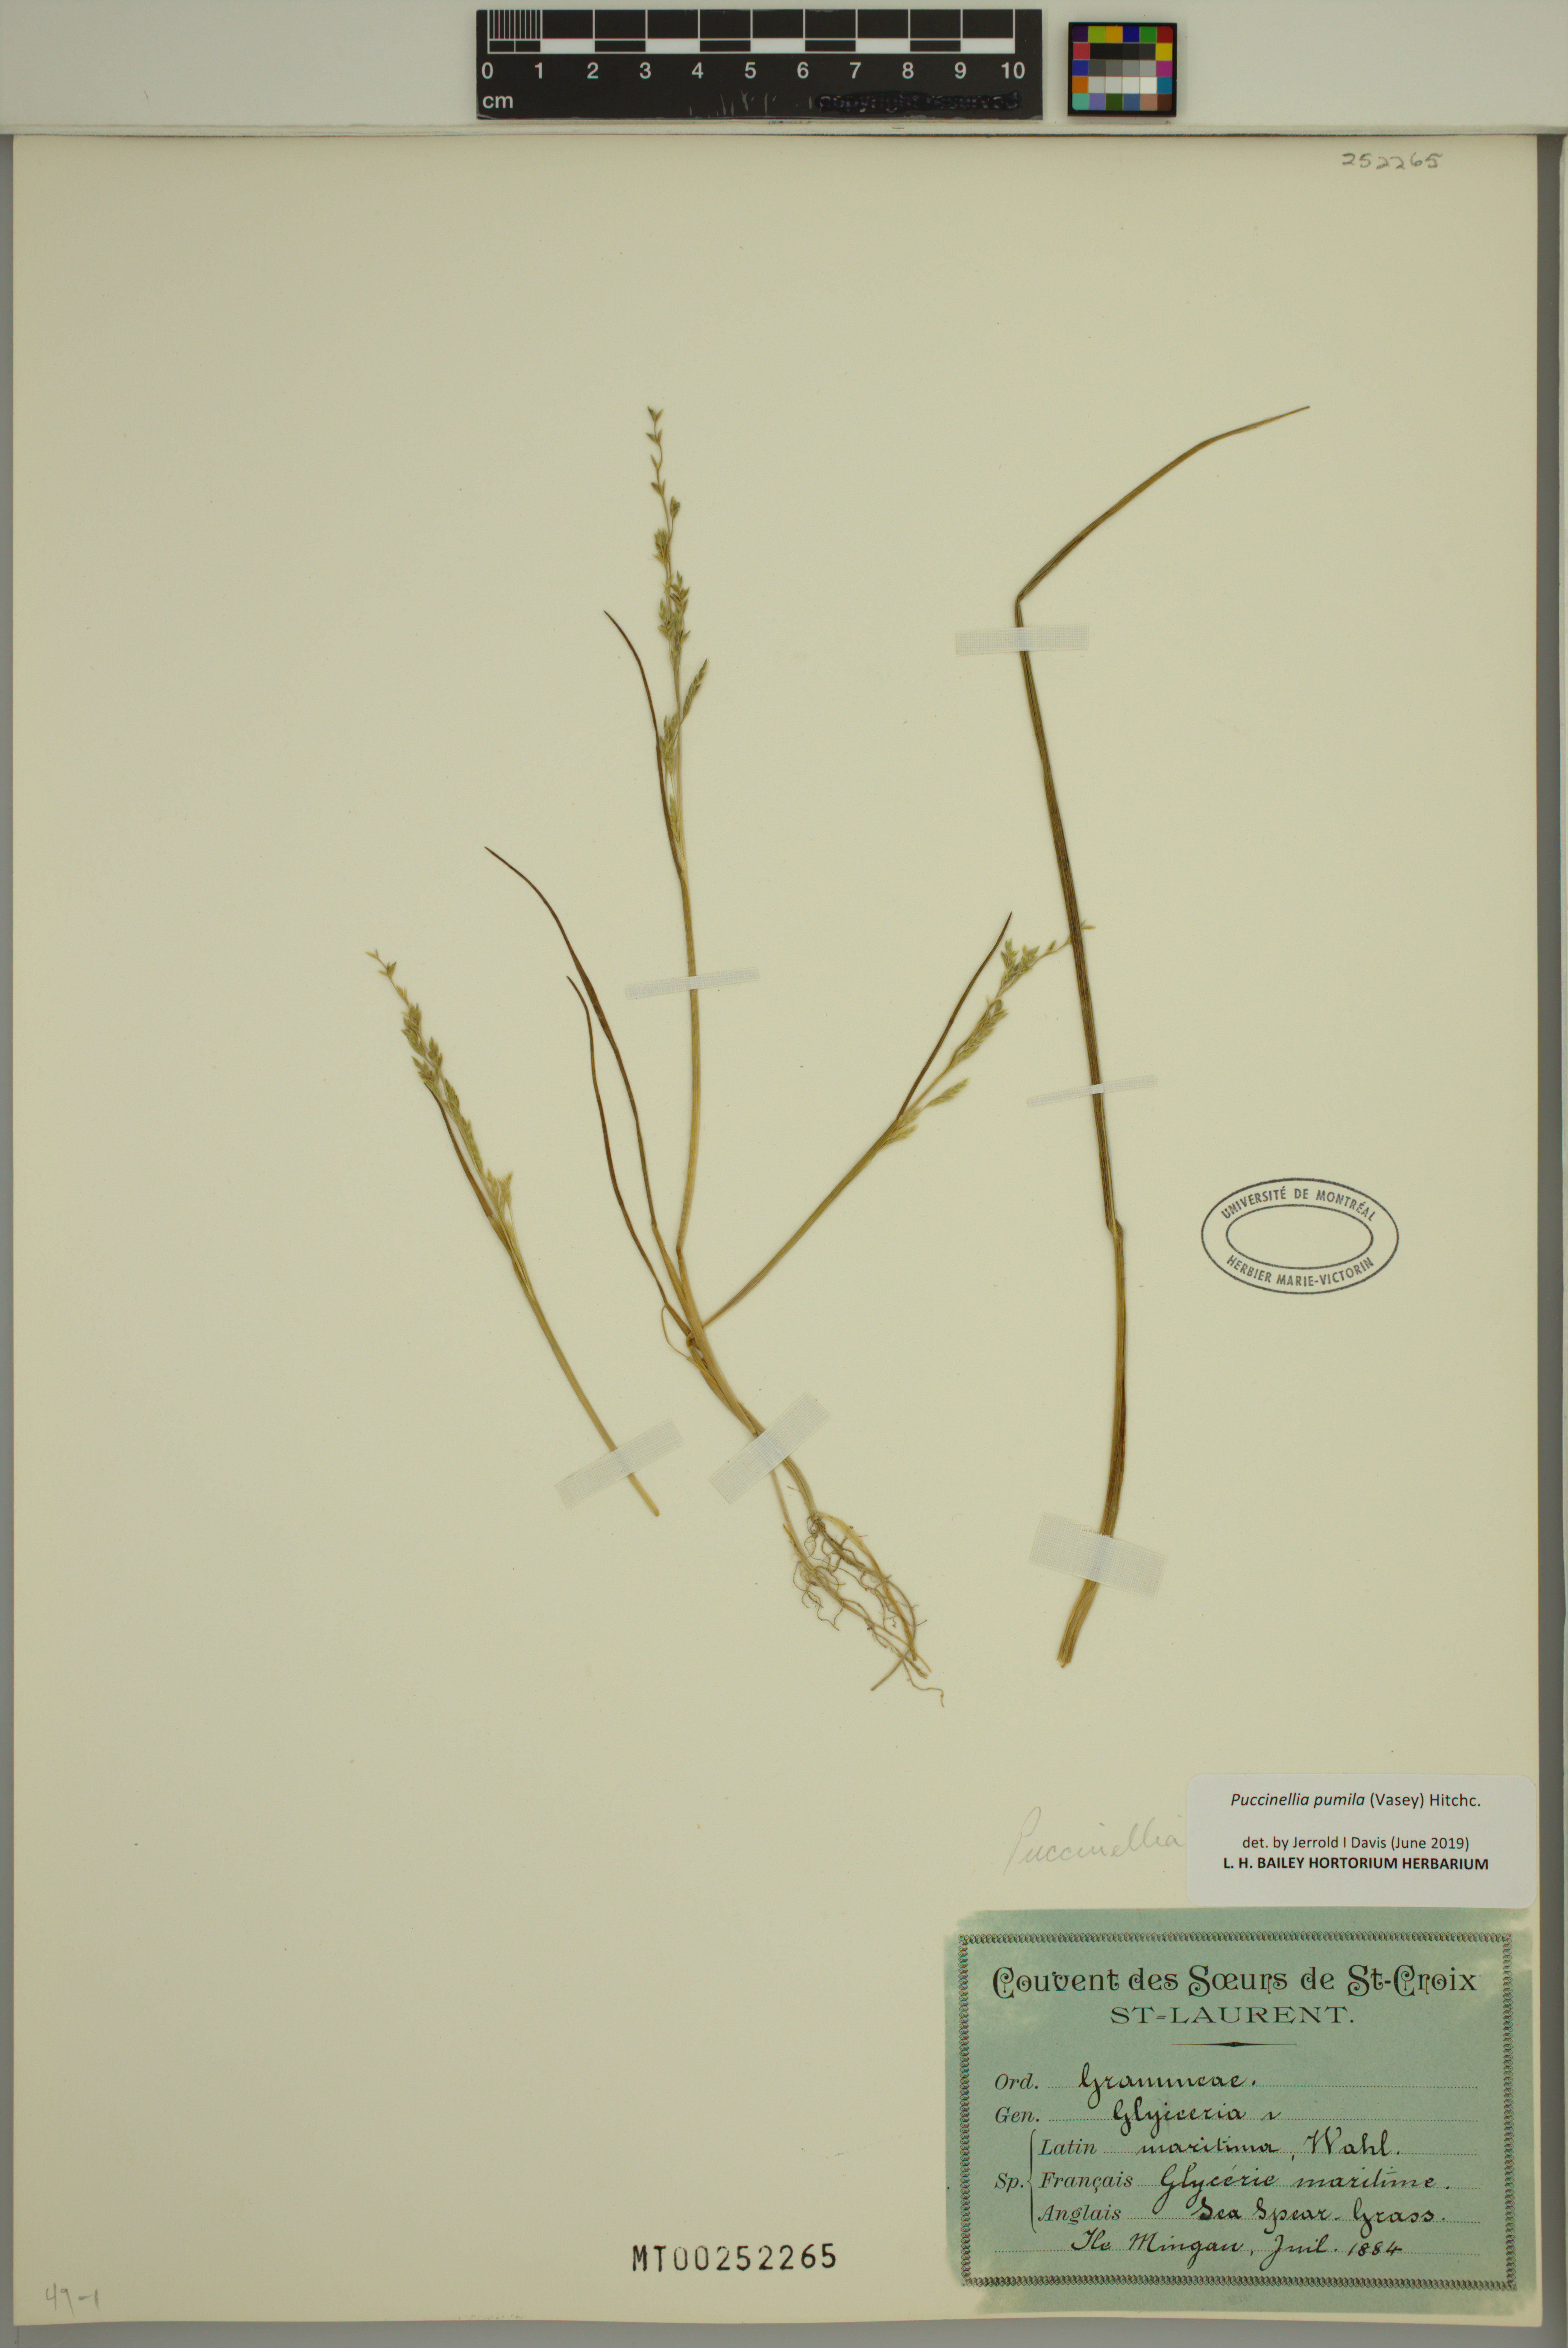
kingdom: Plantae
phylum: Tracheophyta
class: Liliopsida
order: Poales
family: Poaceae
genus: Puccinellia
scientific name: Puccinellia pumila
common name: Dwarf alkaligrass
